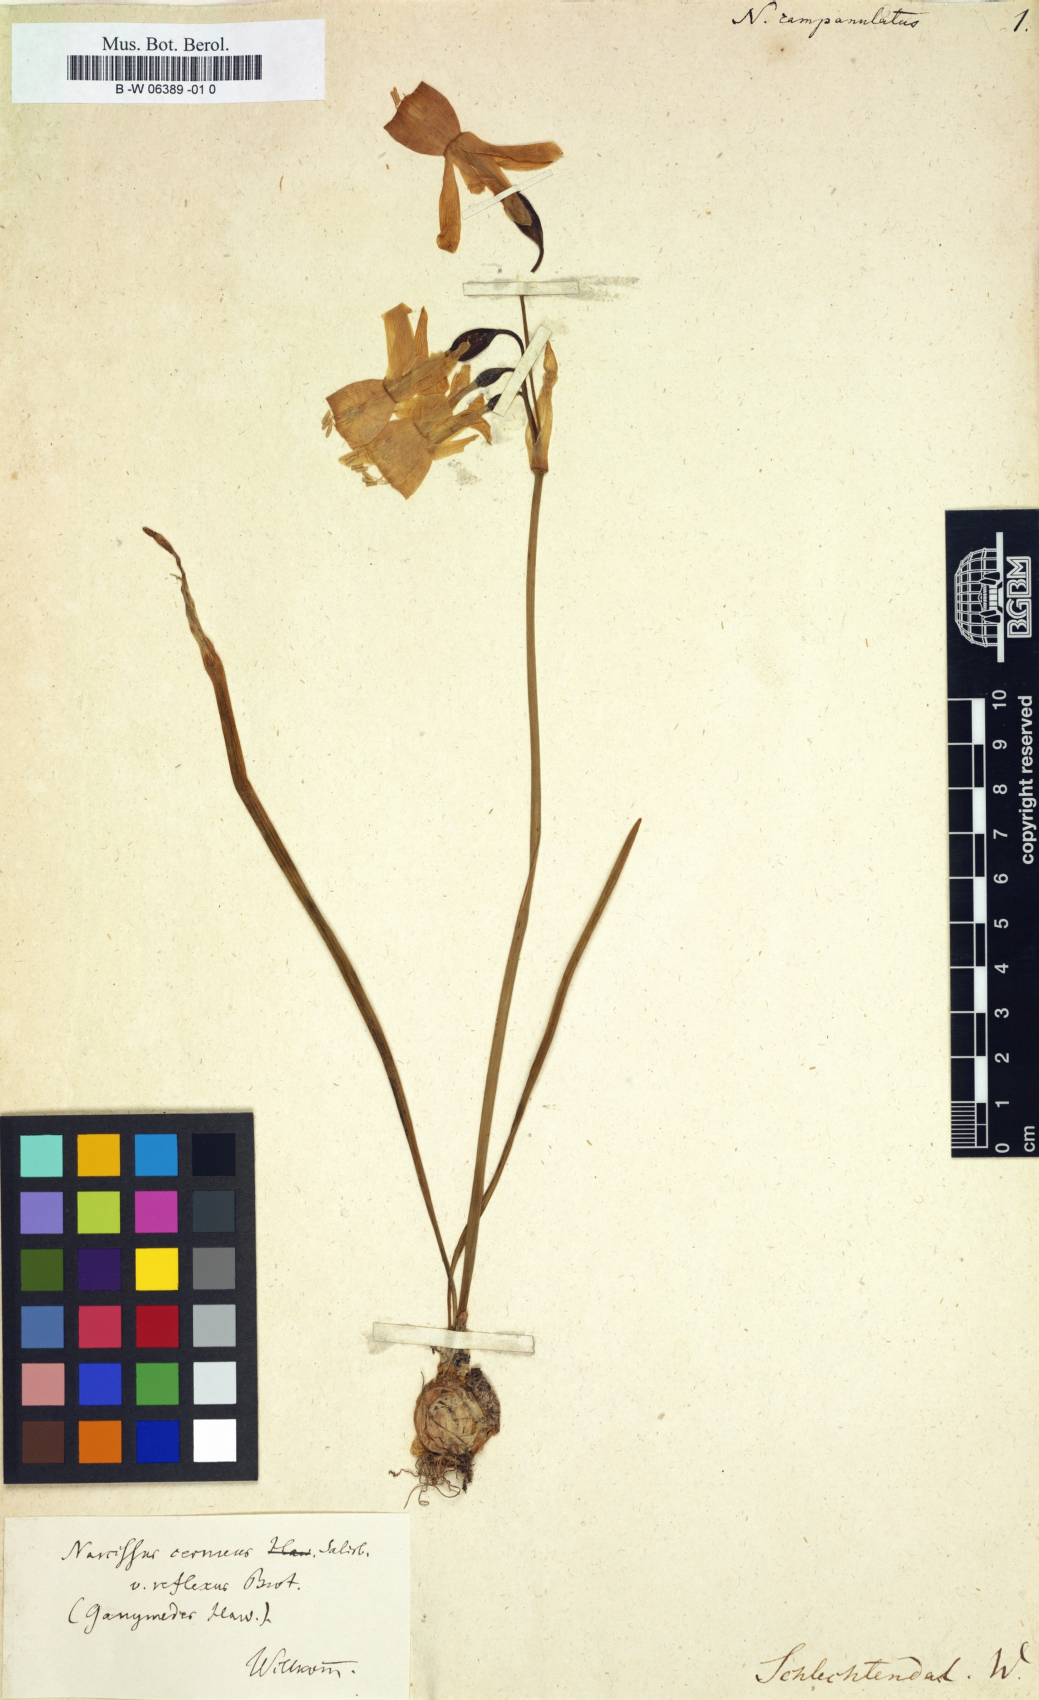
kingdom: Plantae
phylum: Tracheophyta
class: Liliopsida
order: Asparagales
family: Amaryllidaceae
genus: Narcissus
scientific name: Narcissus triandrus
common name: Angel's-tears
